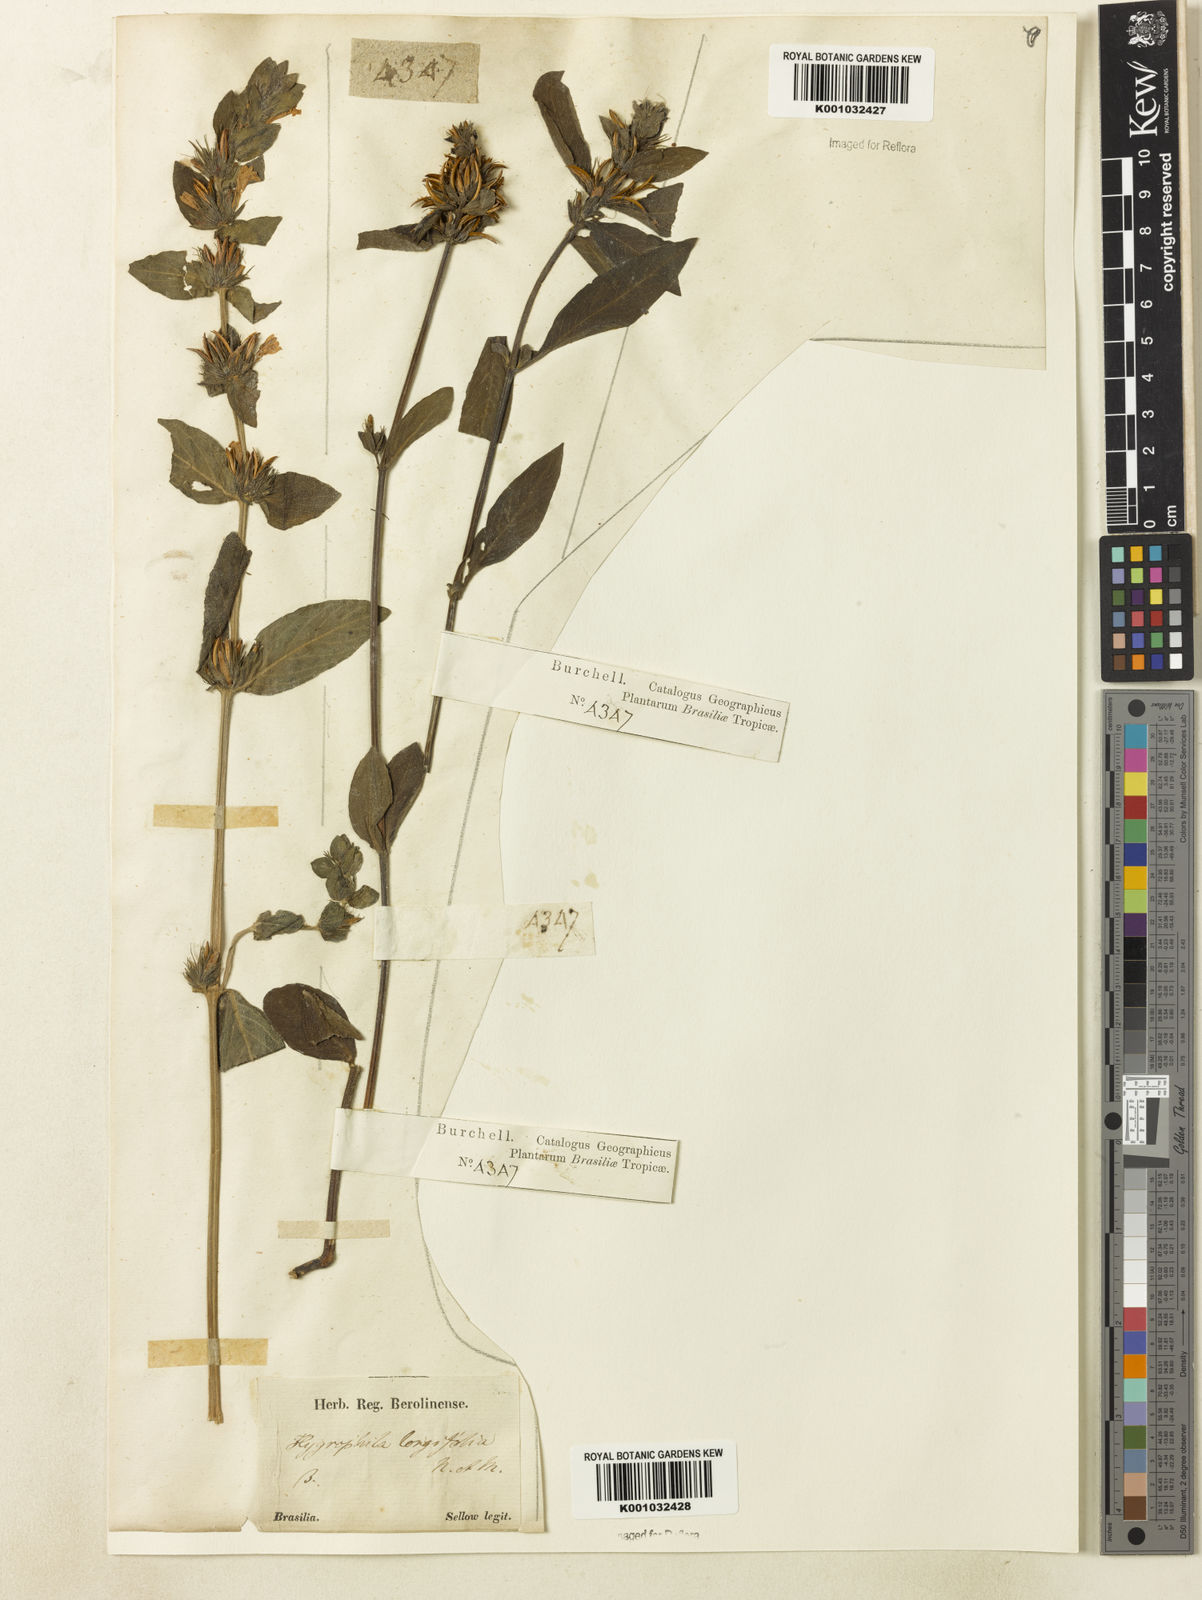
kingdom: Plantae
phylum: Tracheophyta
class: Magnoliopsida
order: Lamiales
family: Acanthaceae
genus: Hygrophila
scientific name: Hygrophila costata
